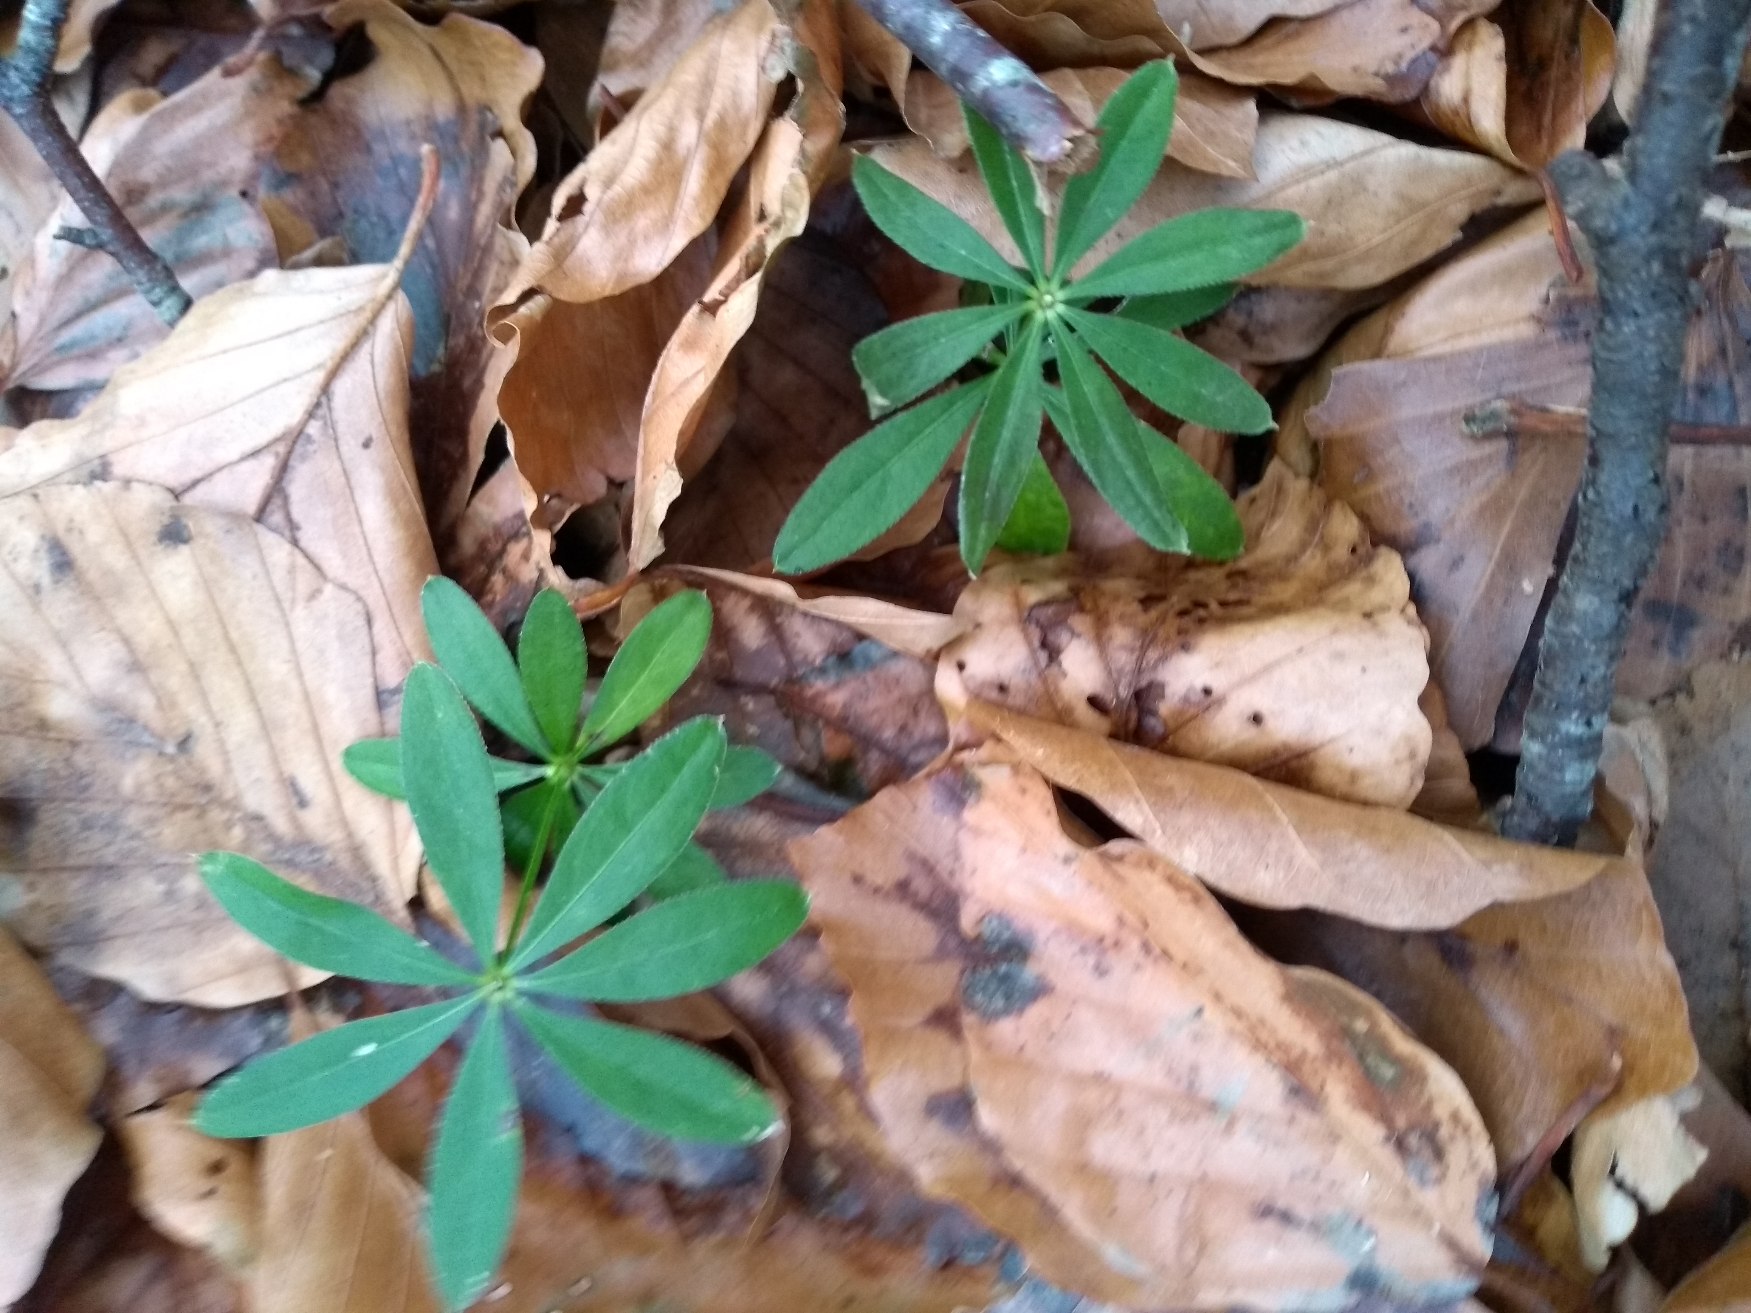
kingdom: Plantae
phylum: Tracheophyta
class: Magnoliopsida
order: Gentianales
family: Rubiaceae
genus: Galium
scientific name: Galium odoratum
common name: Skovmærke
